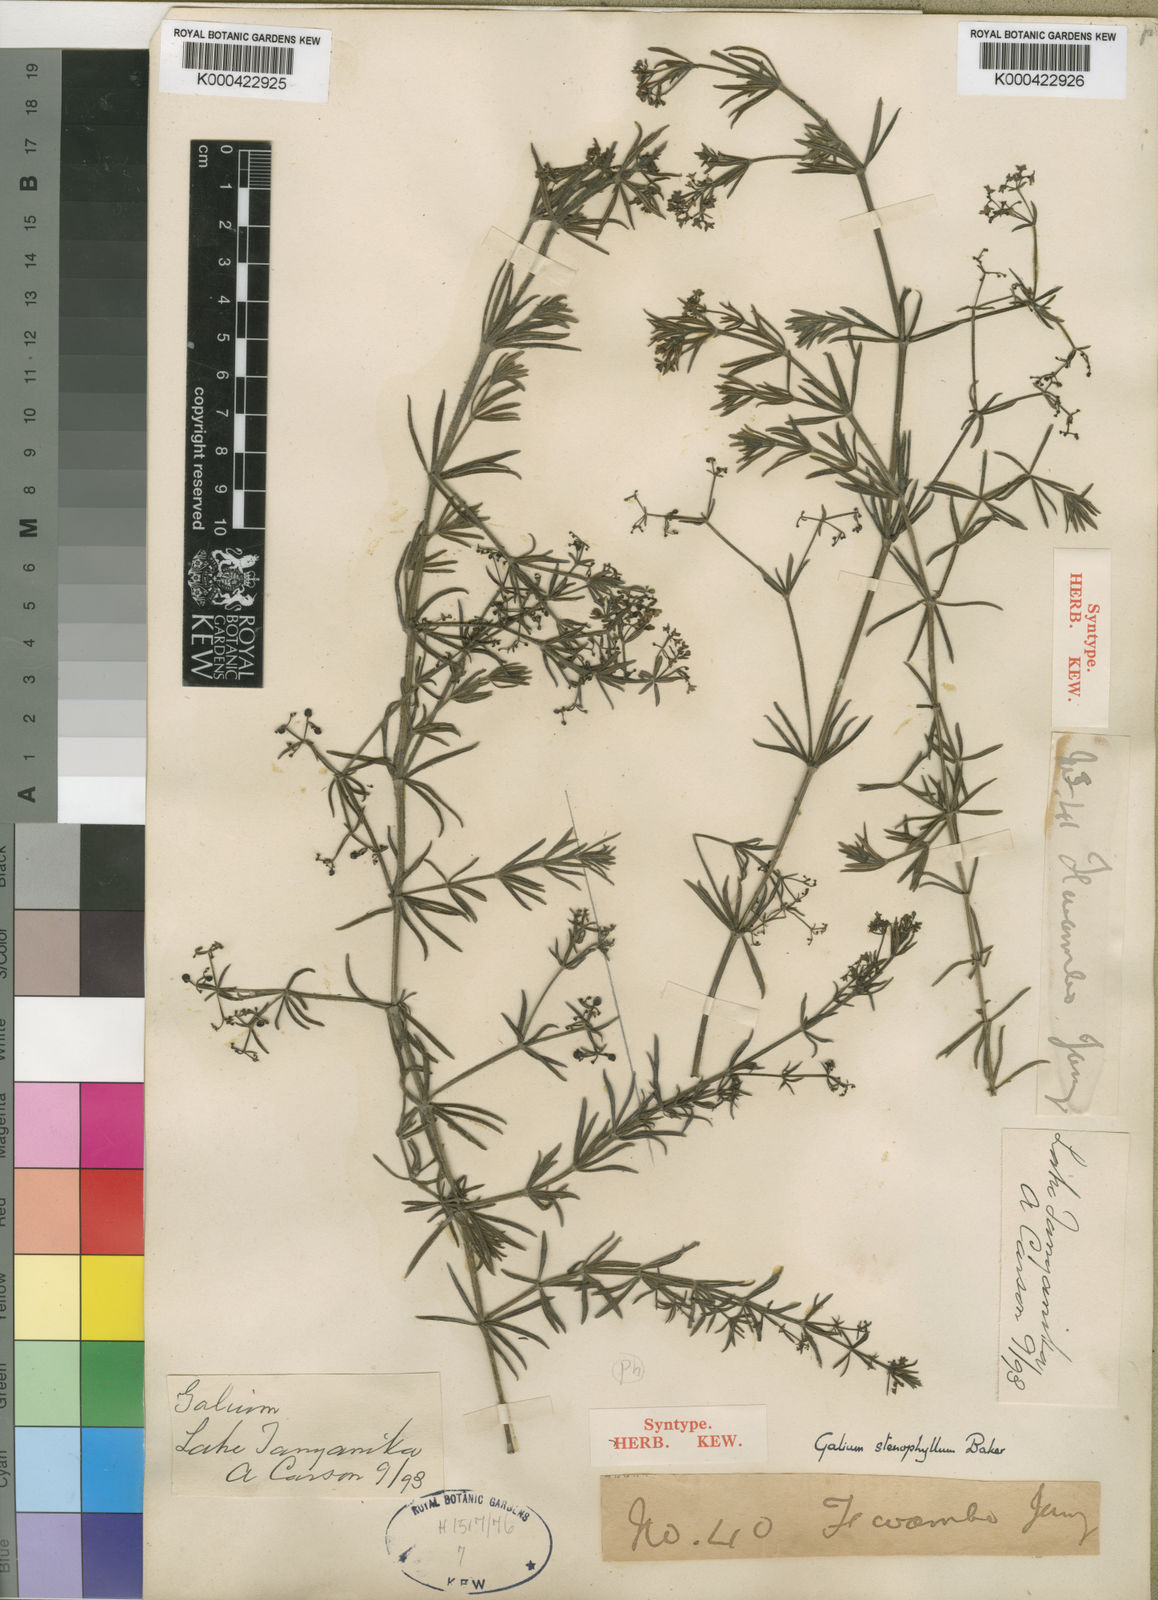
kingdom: Plantae
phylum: Tracheophyta
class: Magnoliopsida
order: Gentianales
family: Rubiaceae
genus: Galium
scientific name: Galium stenophyllum
